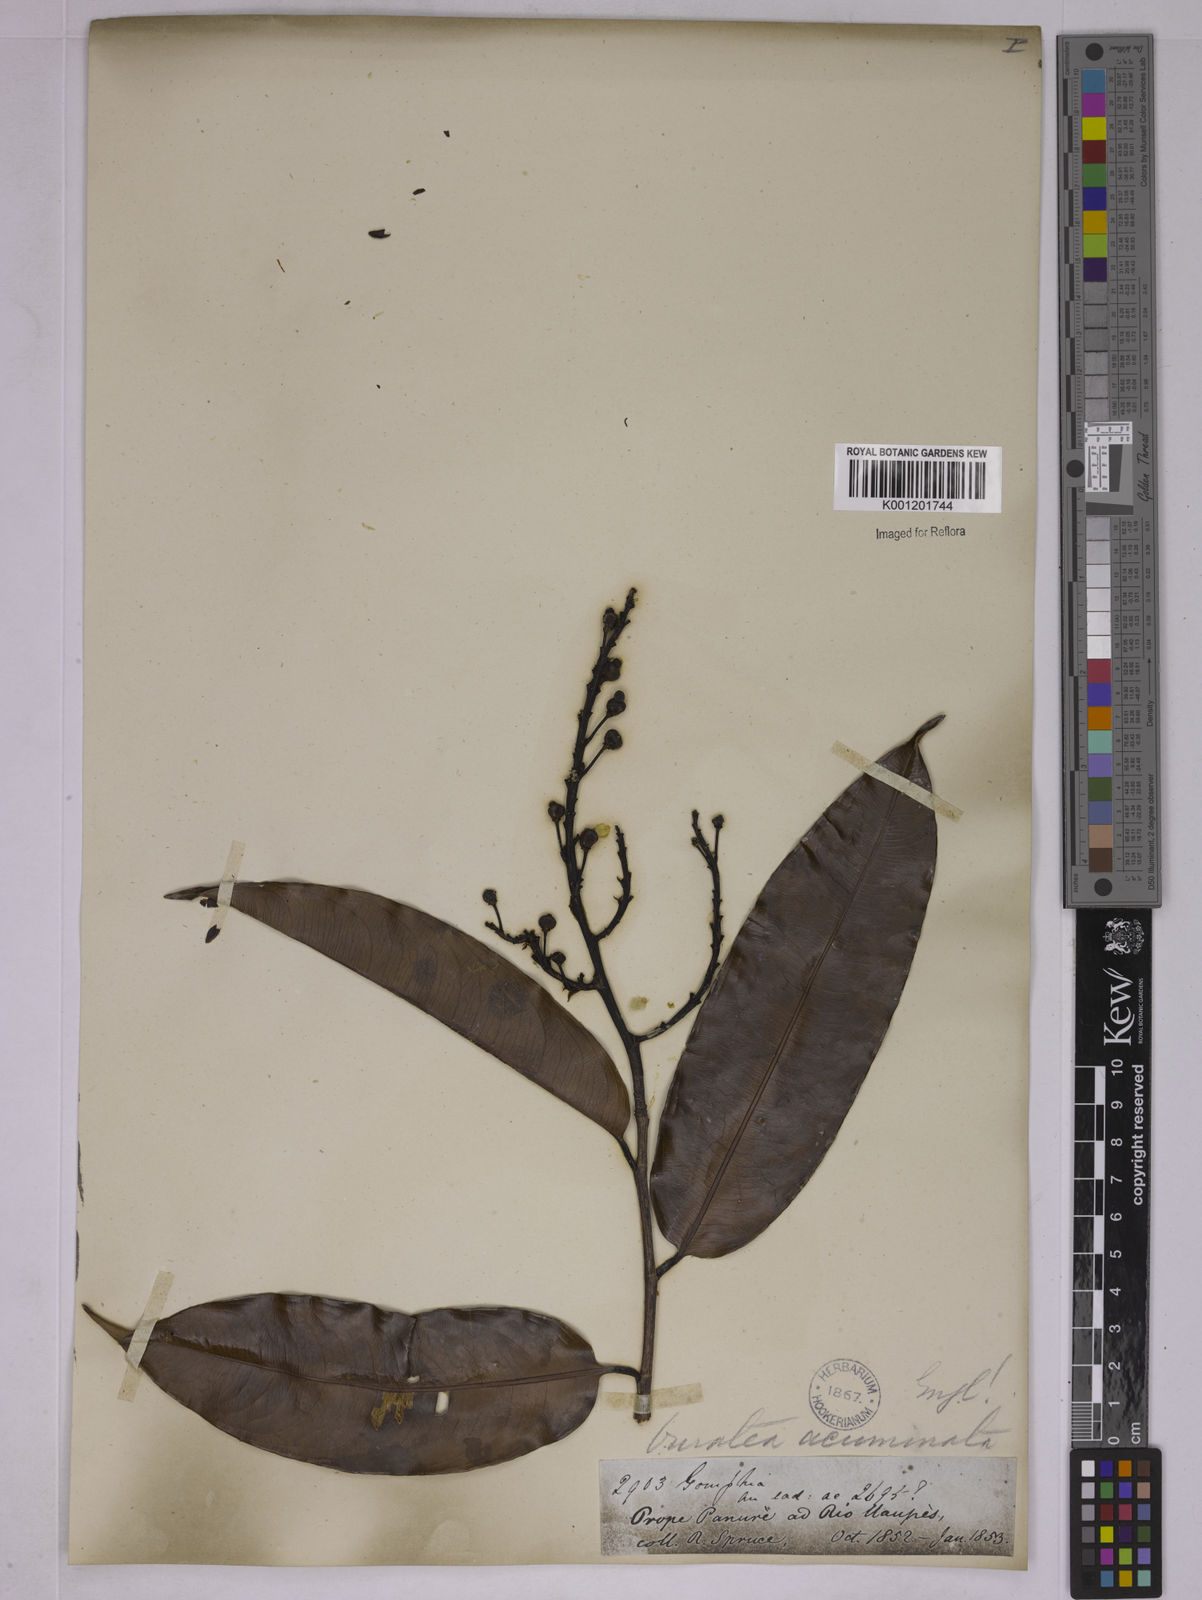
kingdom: Plantae
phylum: Tracheophyta
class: Magnoliopsida
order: Malpighiales
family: Ochnaceae
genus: Ouratea
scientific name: Ouratea acuminata
